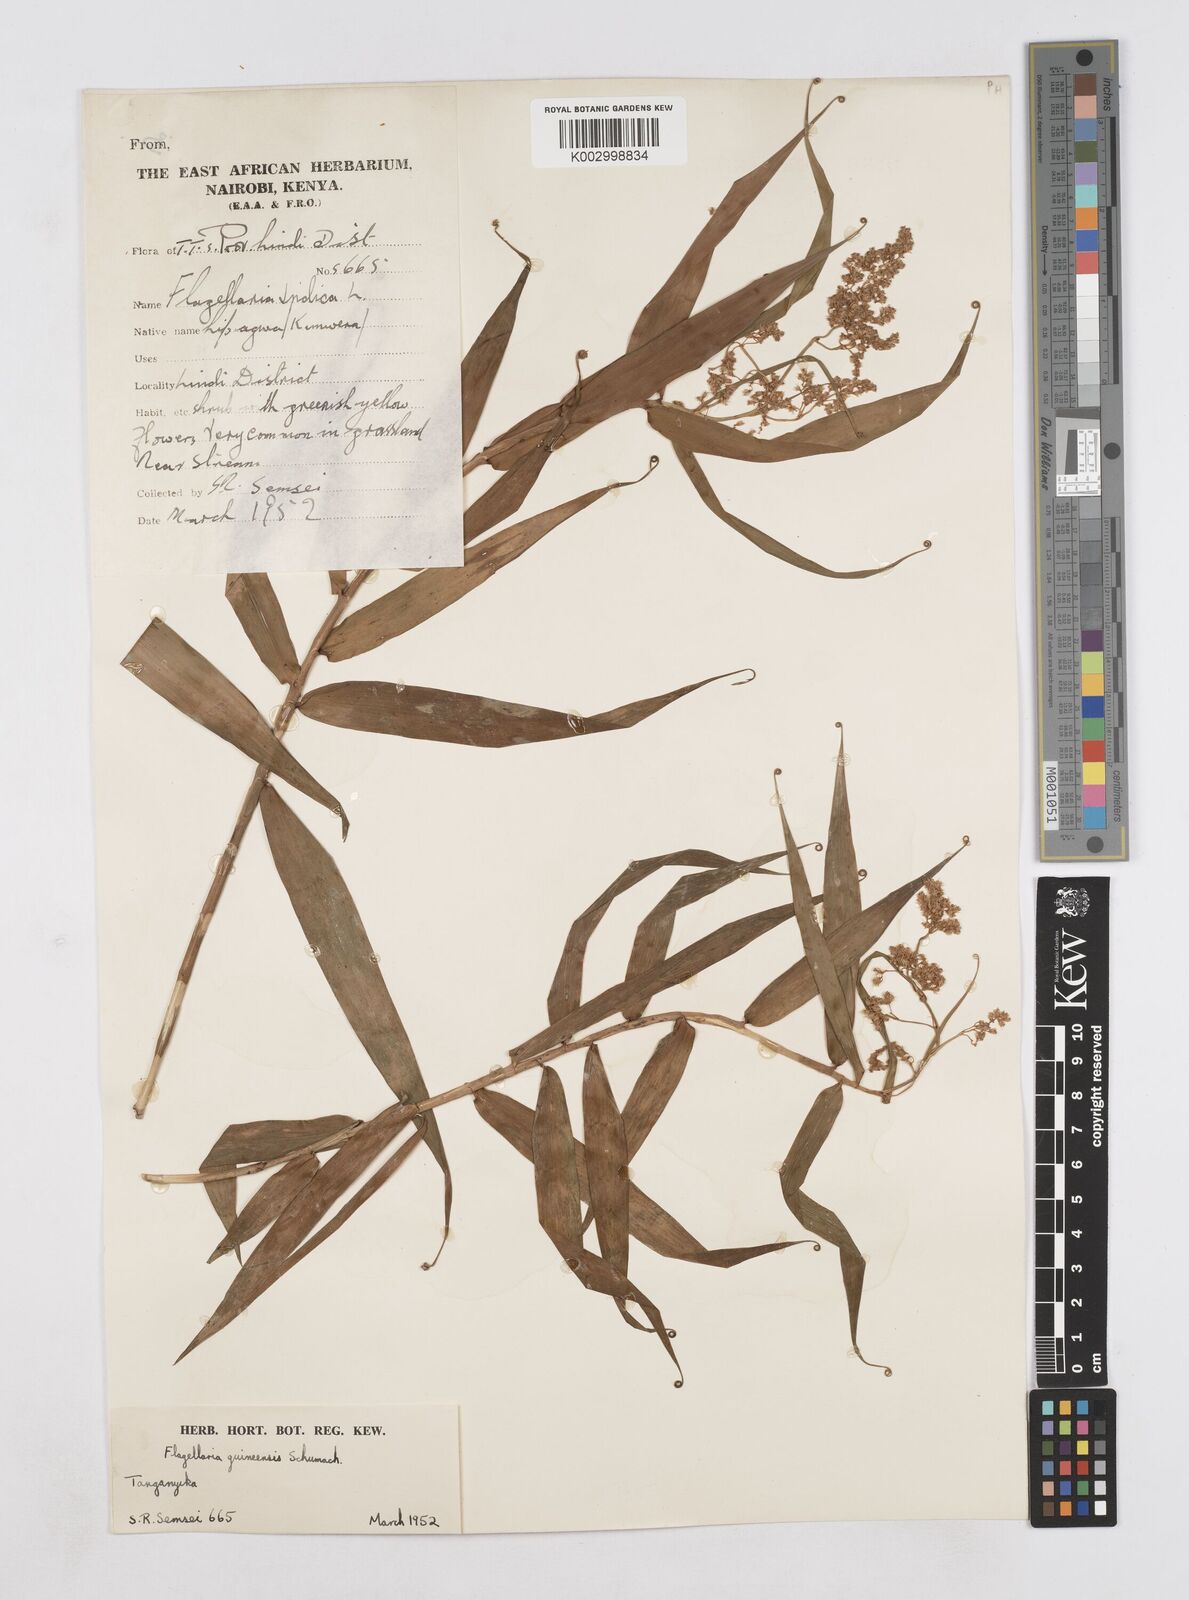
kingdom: Plantae
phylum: Tracheophyta
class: Liliopsida
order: Poales
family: Flagellariaceae
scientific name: Flagellariaceae
